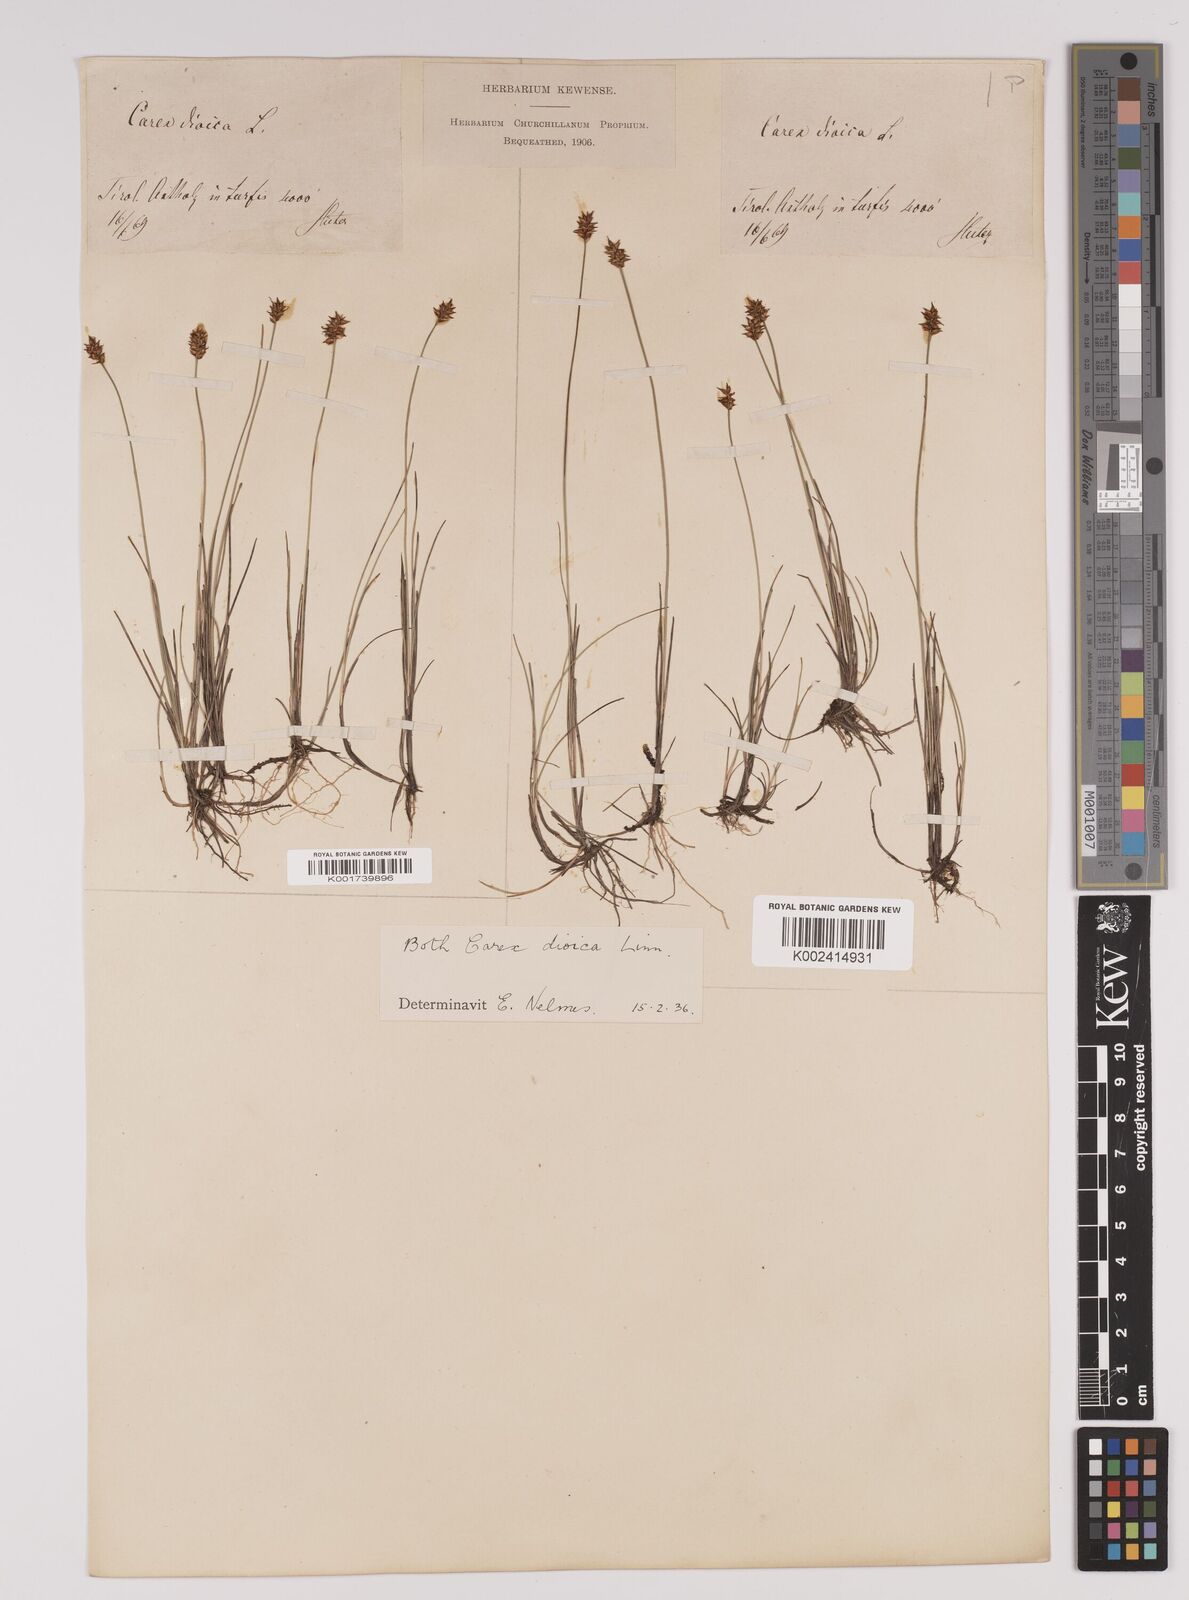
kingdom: Plantae
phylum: Tracheophyta
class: Liliopsida
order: Poales
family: Cyperaceae
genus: Carex
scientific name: Carex dioica
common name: Dioecious sedge
